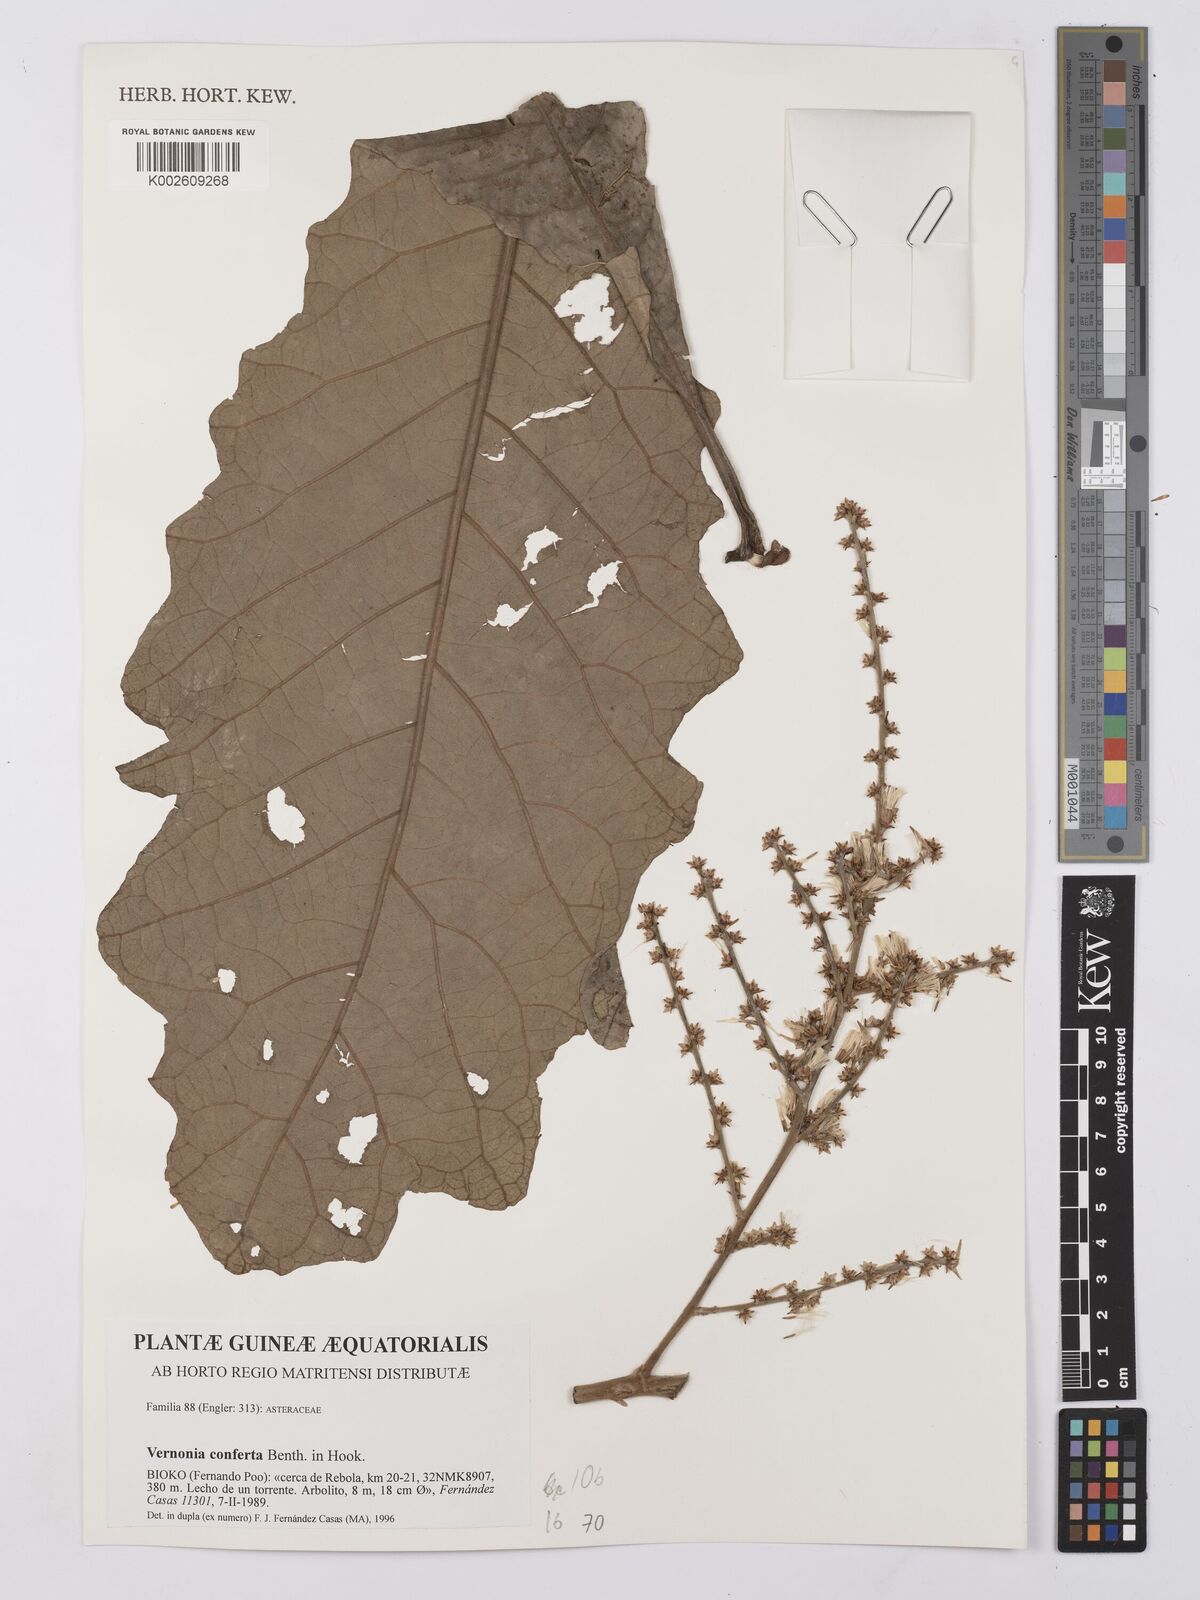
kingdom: Plantae
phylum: Tracheophyta
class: Magnoliopsida
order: Asterales
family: Asteraceae
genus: Monosis
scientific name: Monosis conferta
